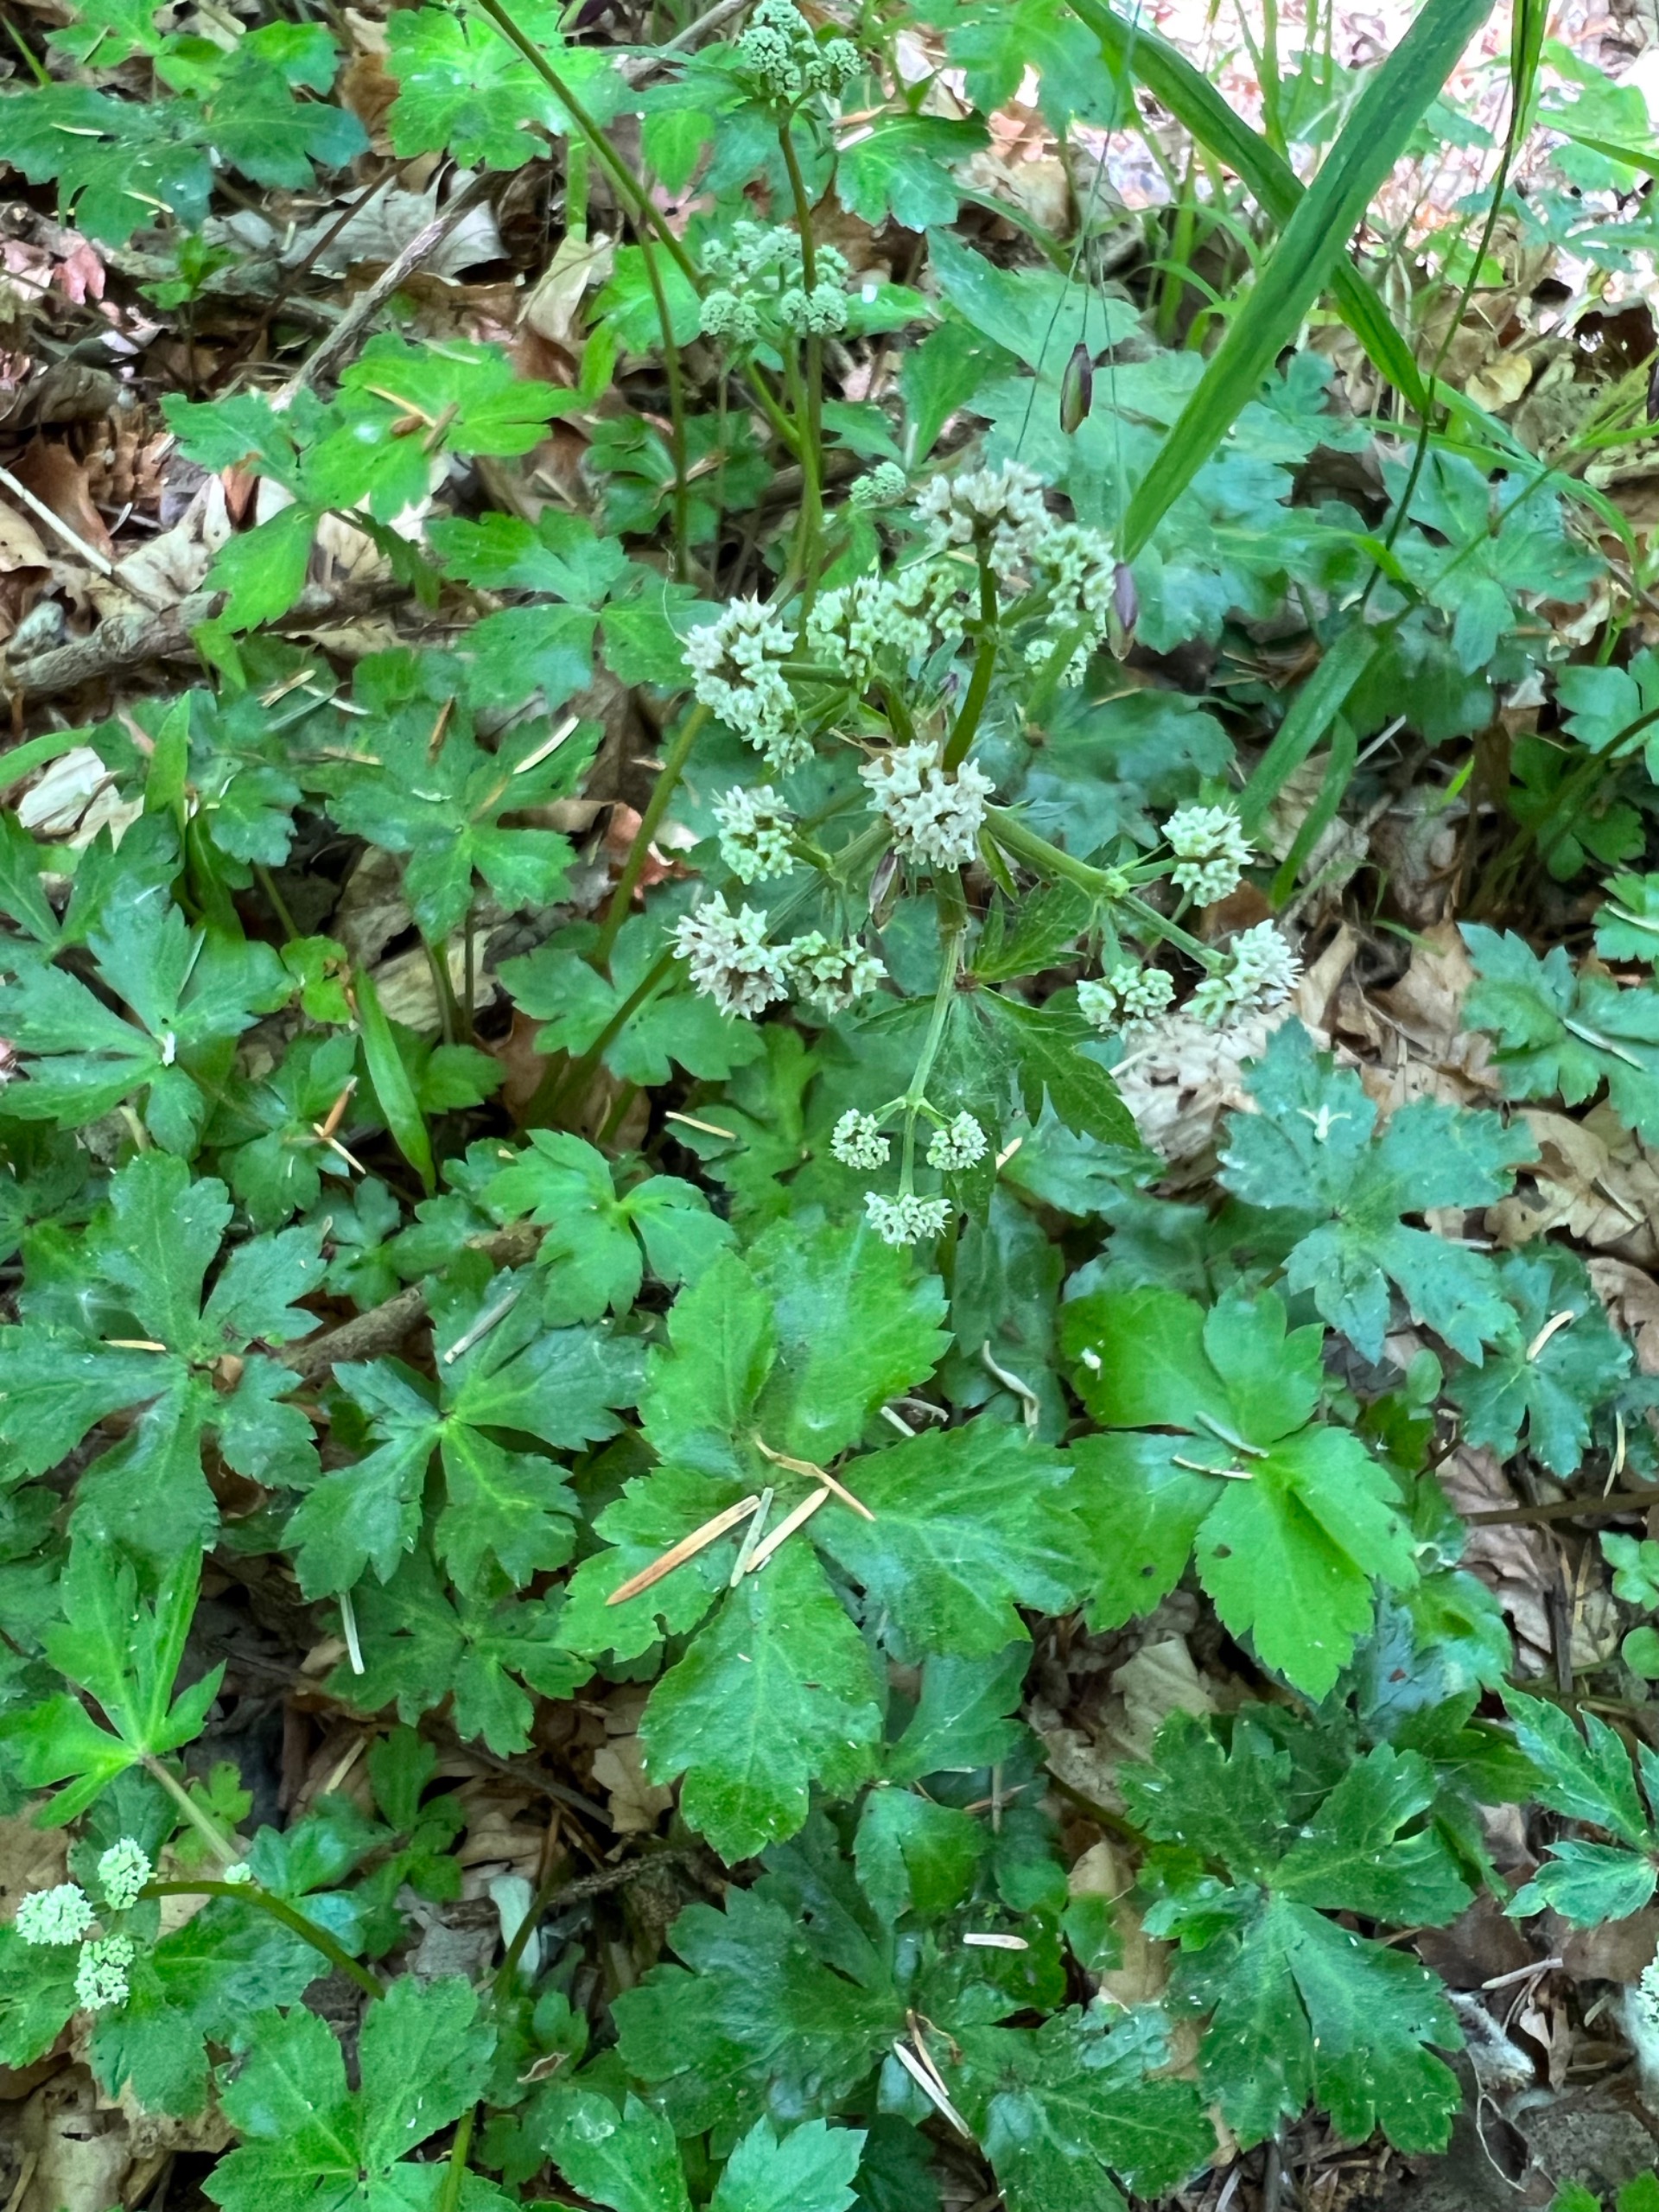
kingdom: Plantae
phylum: Tracheophyta
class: Magnoliopsida
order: Apiales
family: Apiaceae
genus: Sanicula
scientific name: Sanicula europaea
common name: Sanikel
